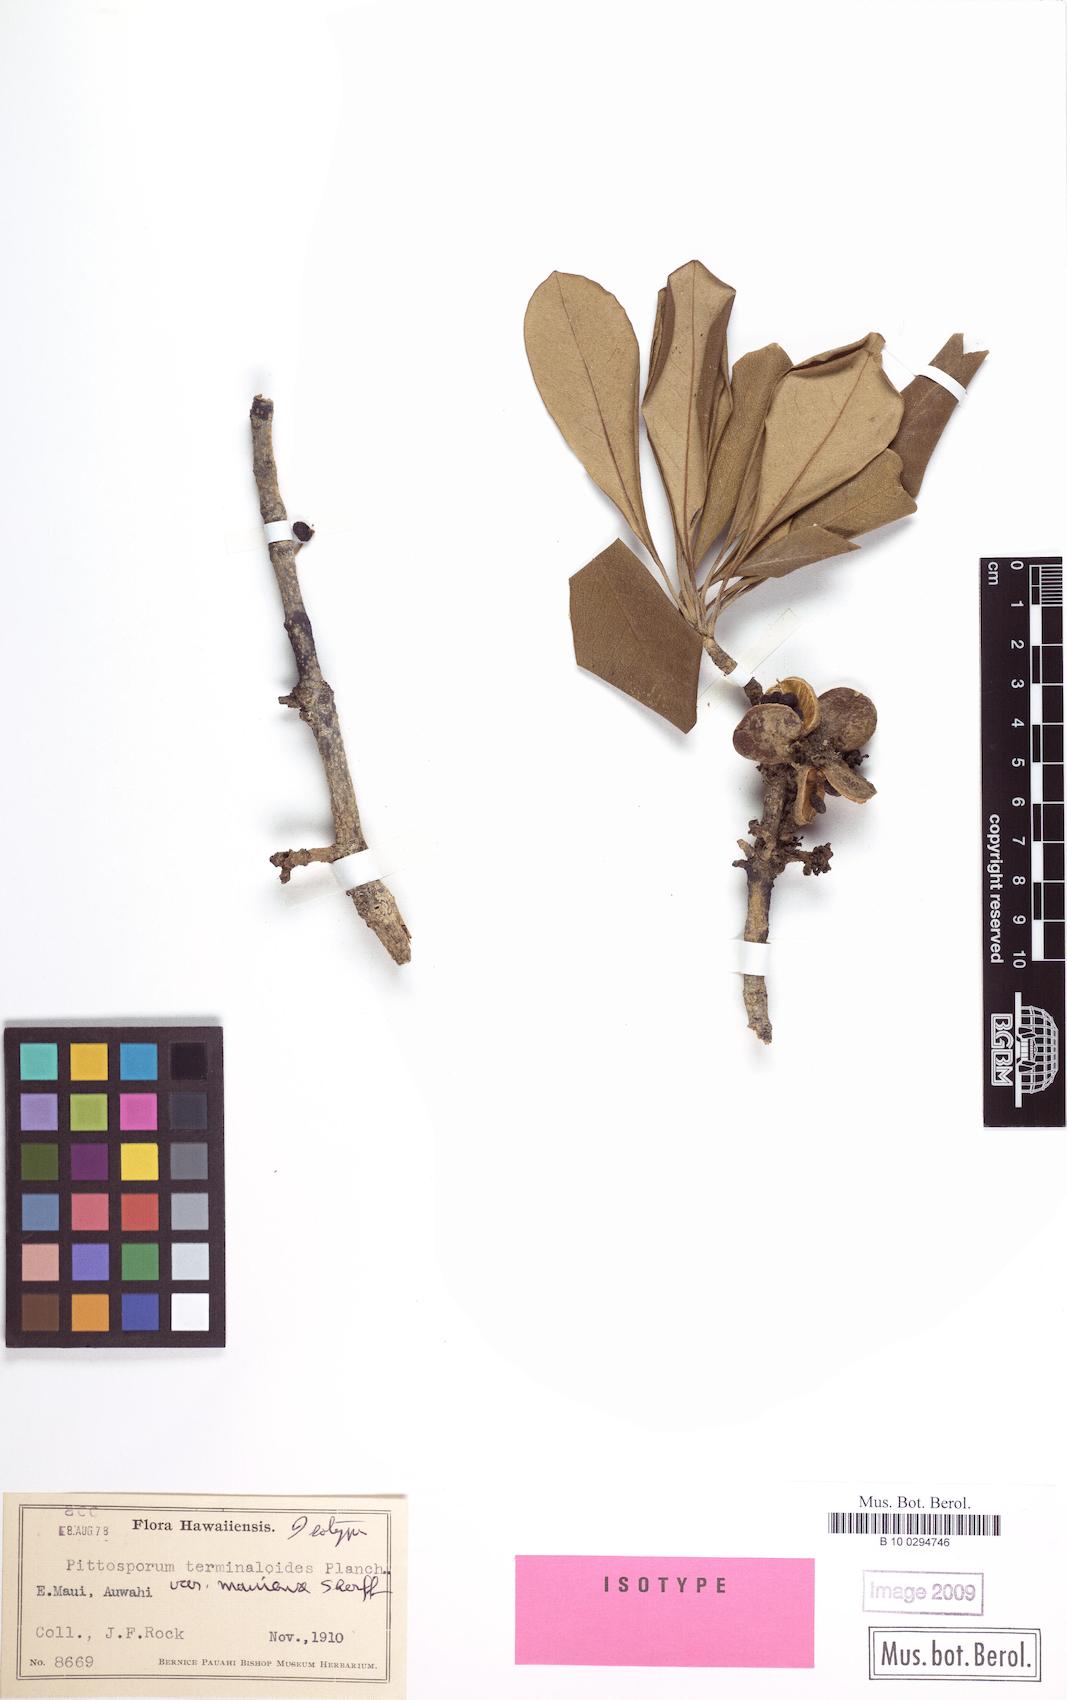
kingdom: Plantae
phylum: Tracheophyta
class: Magnoliopsida
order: Apiales
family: Pittosporaceae
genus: Pittosporum
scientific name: Pittosporum terminalioides
